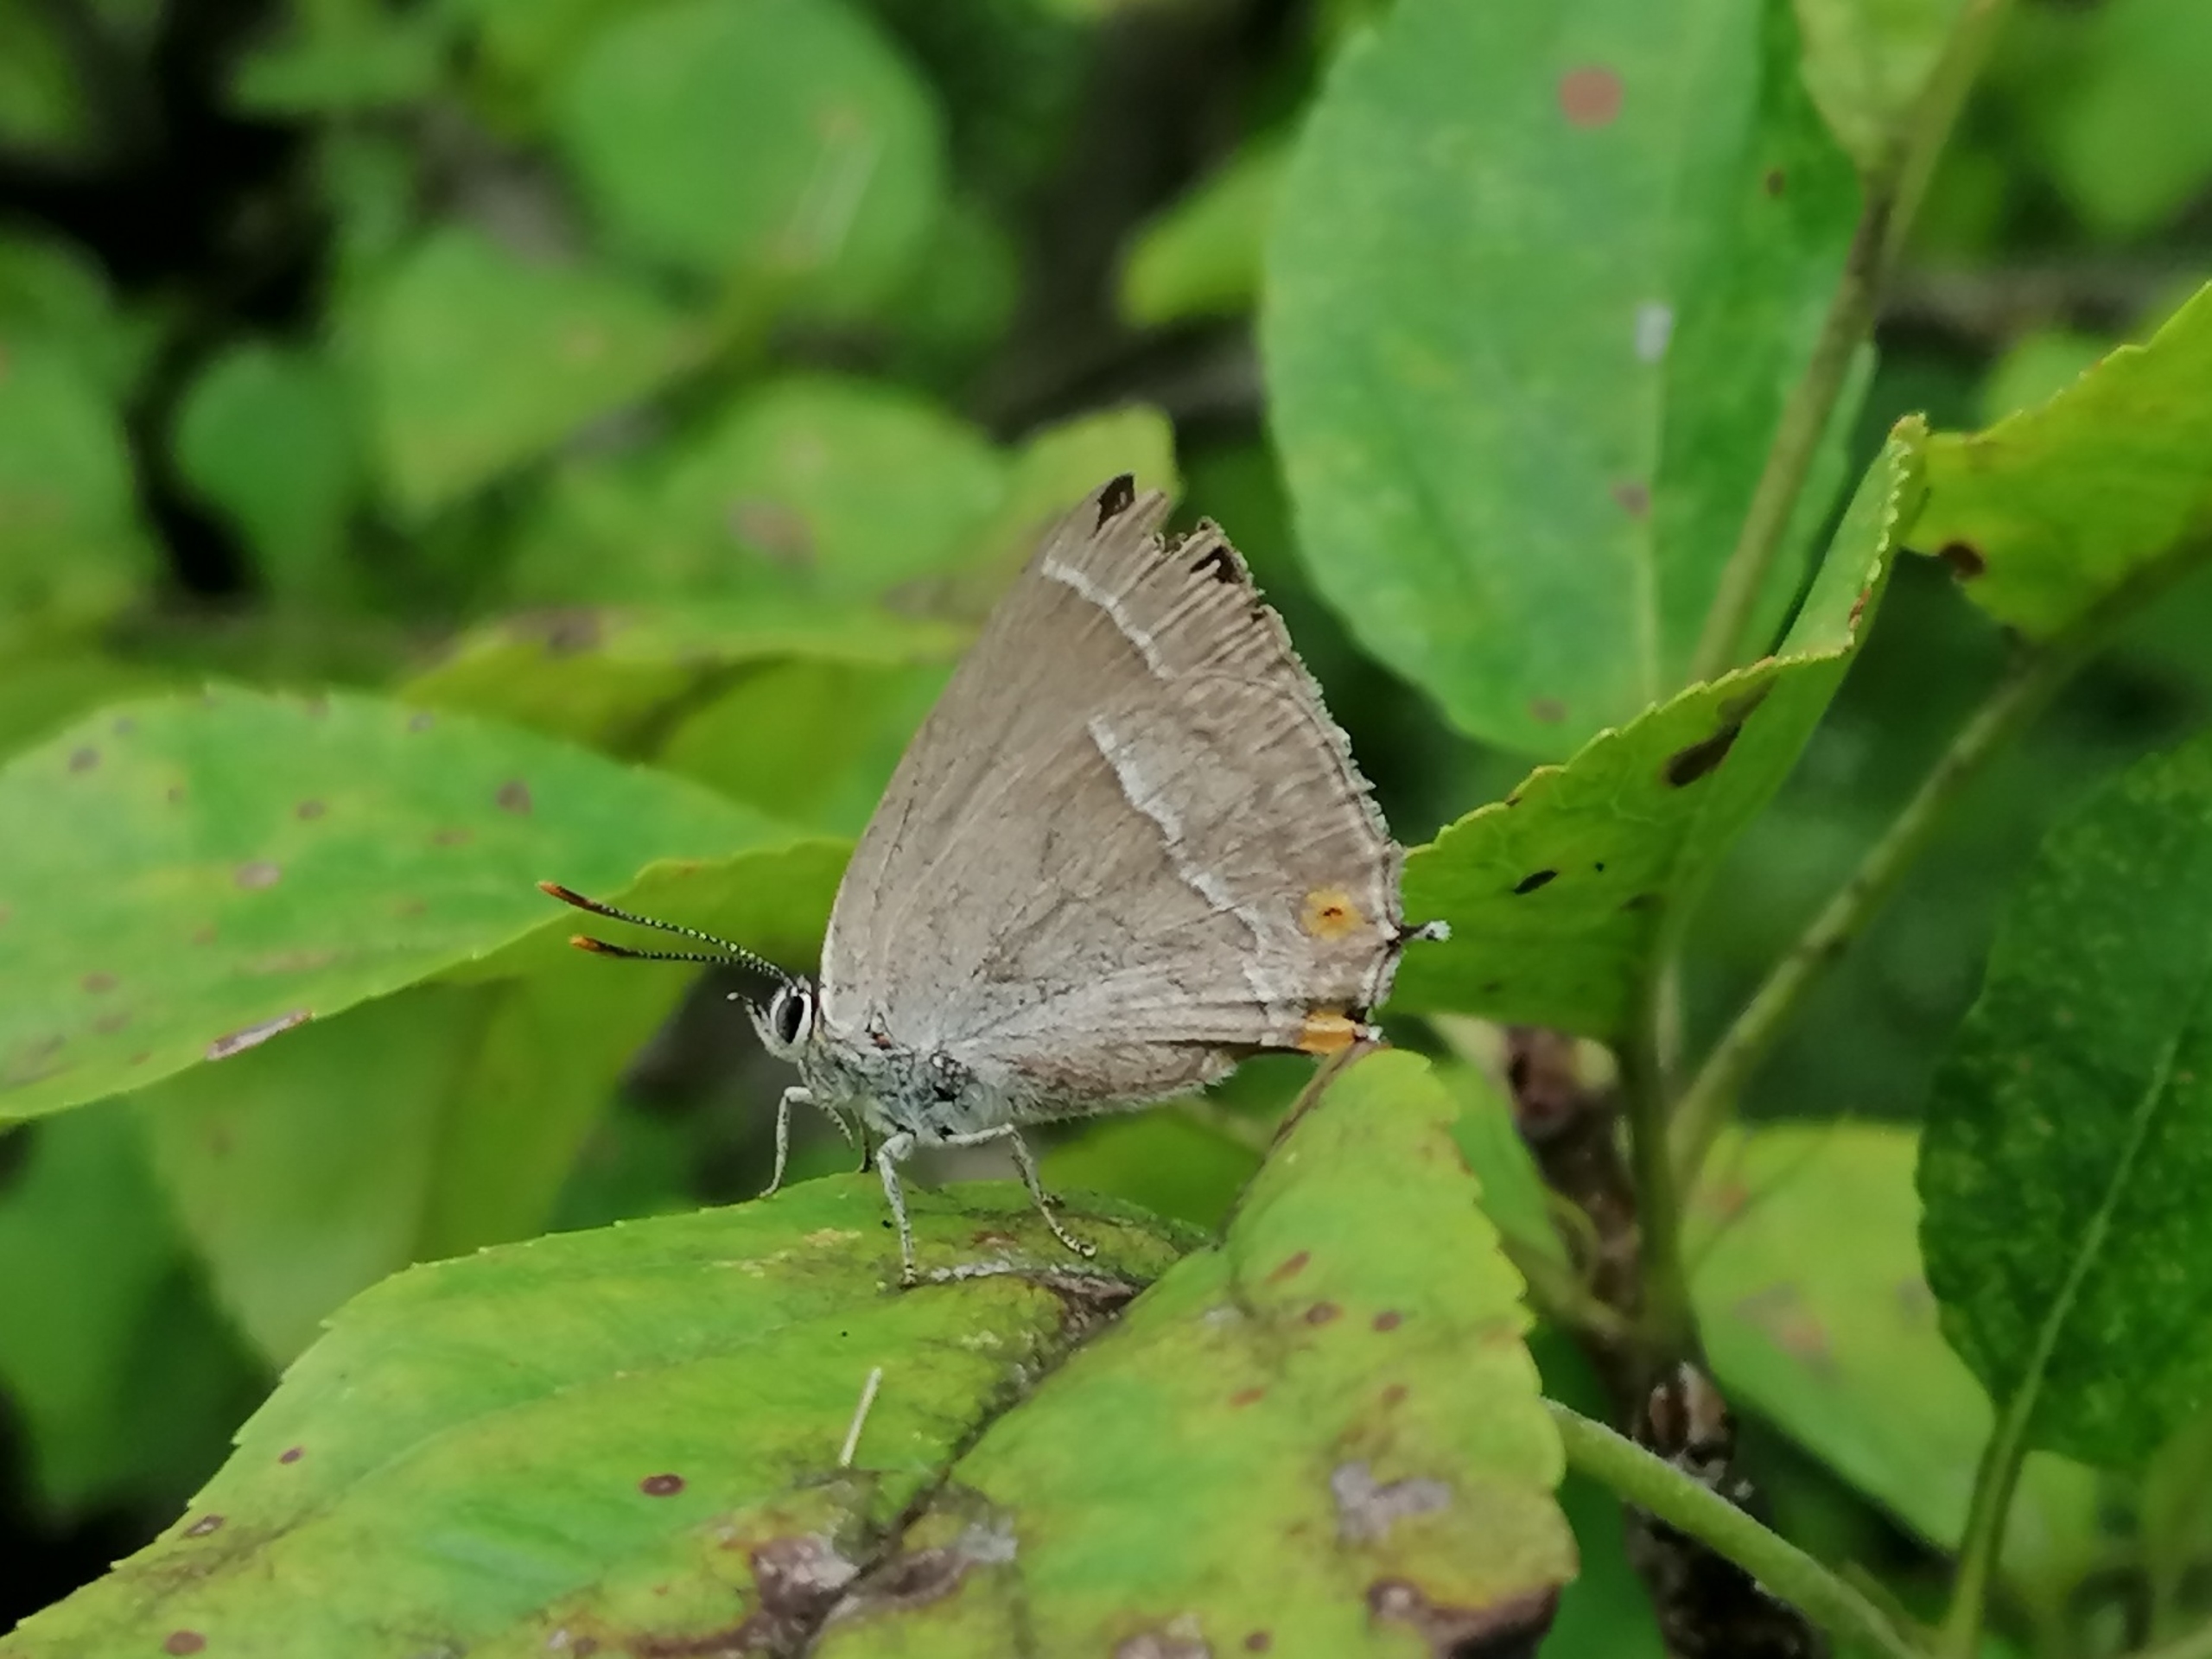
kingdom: Animalia
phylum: Arthropoda
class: Insecta
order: Lepidoptera
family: Lycaenidae
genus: Quercusia
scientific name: Quercusia quercus
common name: Blåhale
